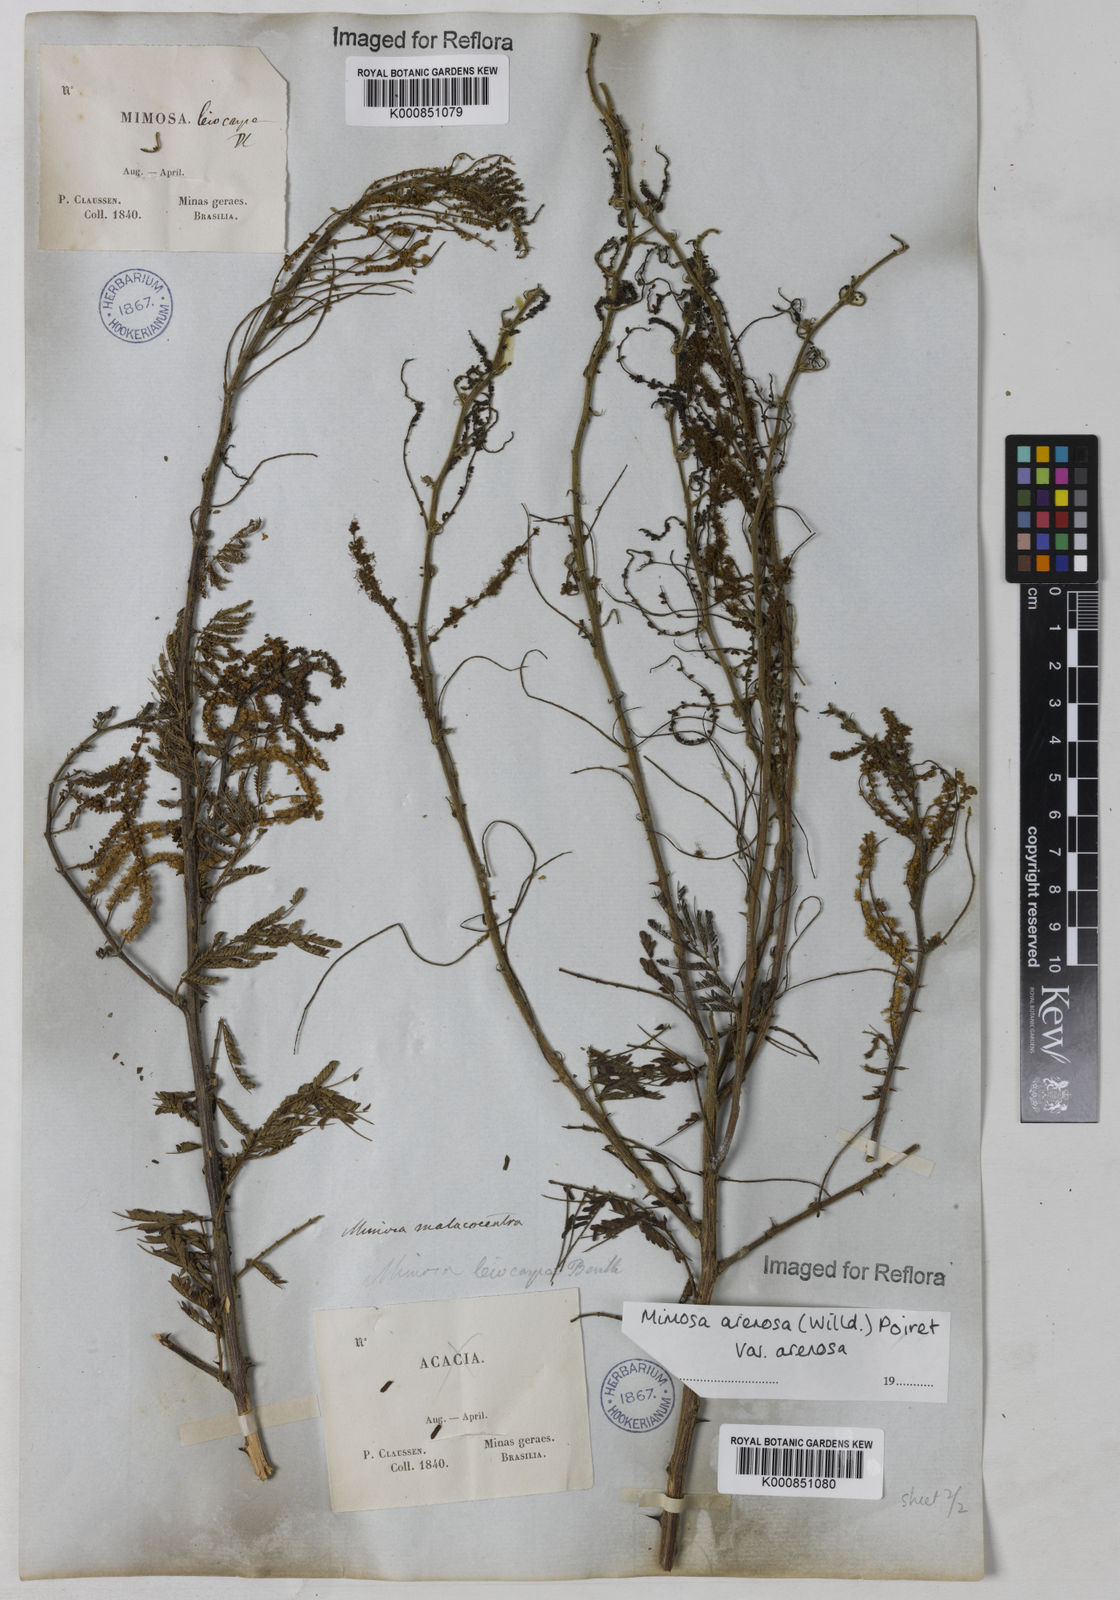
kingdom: Plantae
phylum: Tracheophyta
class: Magnoliopsida
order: Fabales
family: Fabaceae
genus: Mimosa
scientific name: Mimosa arenosa
